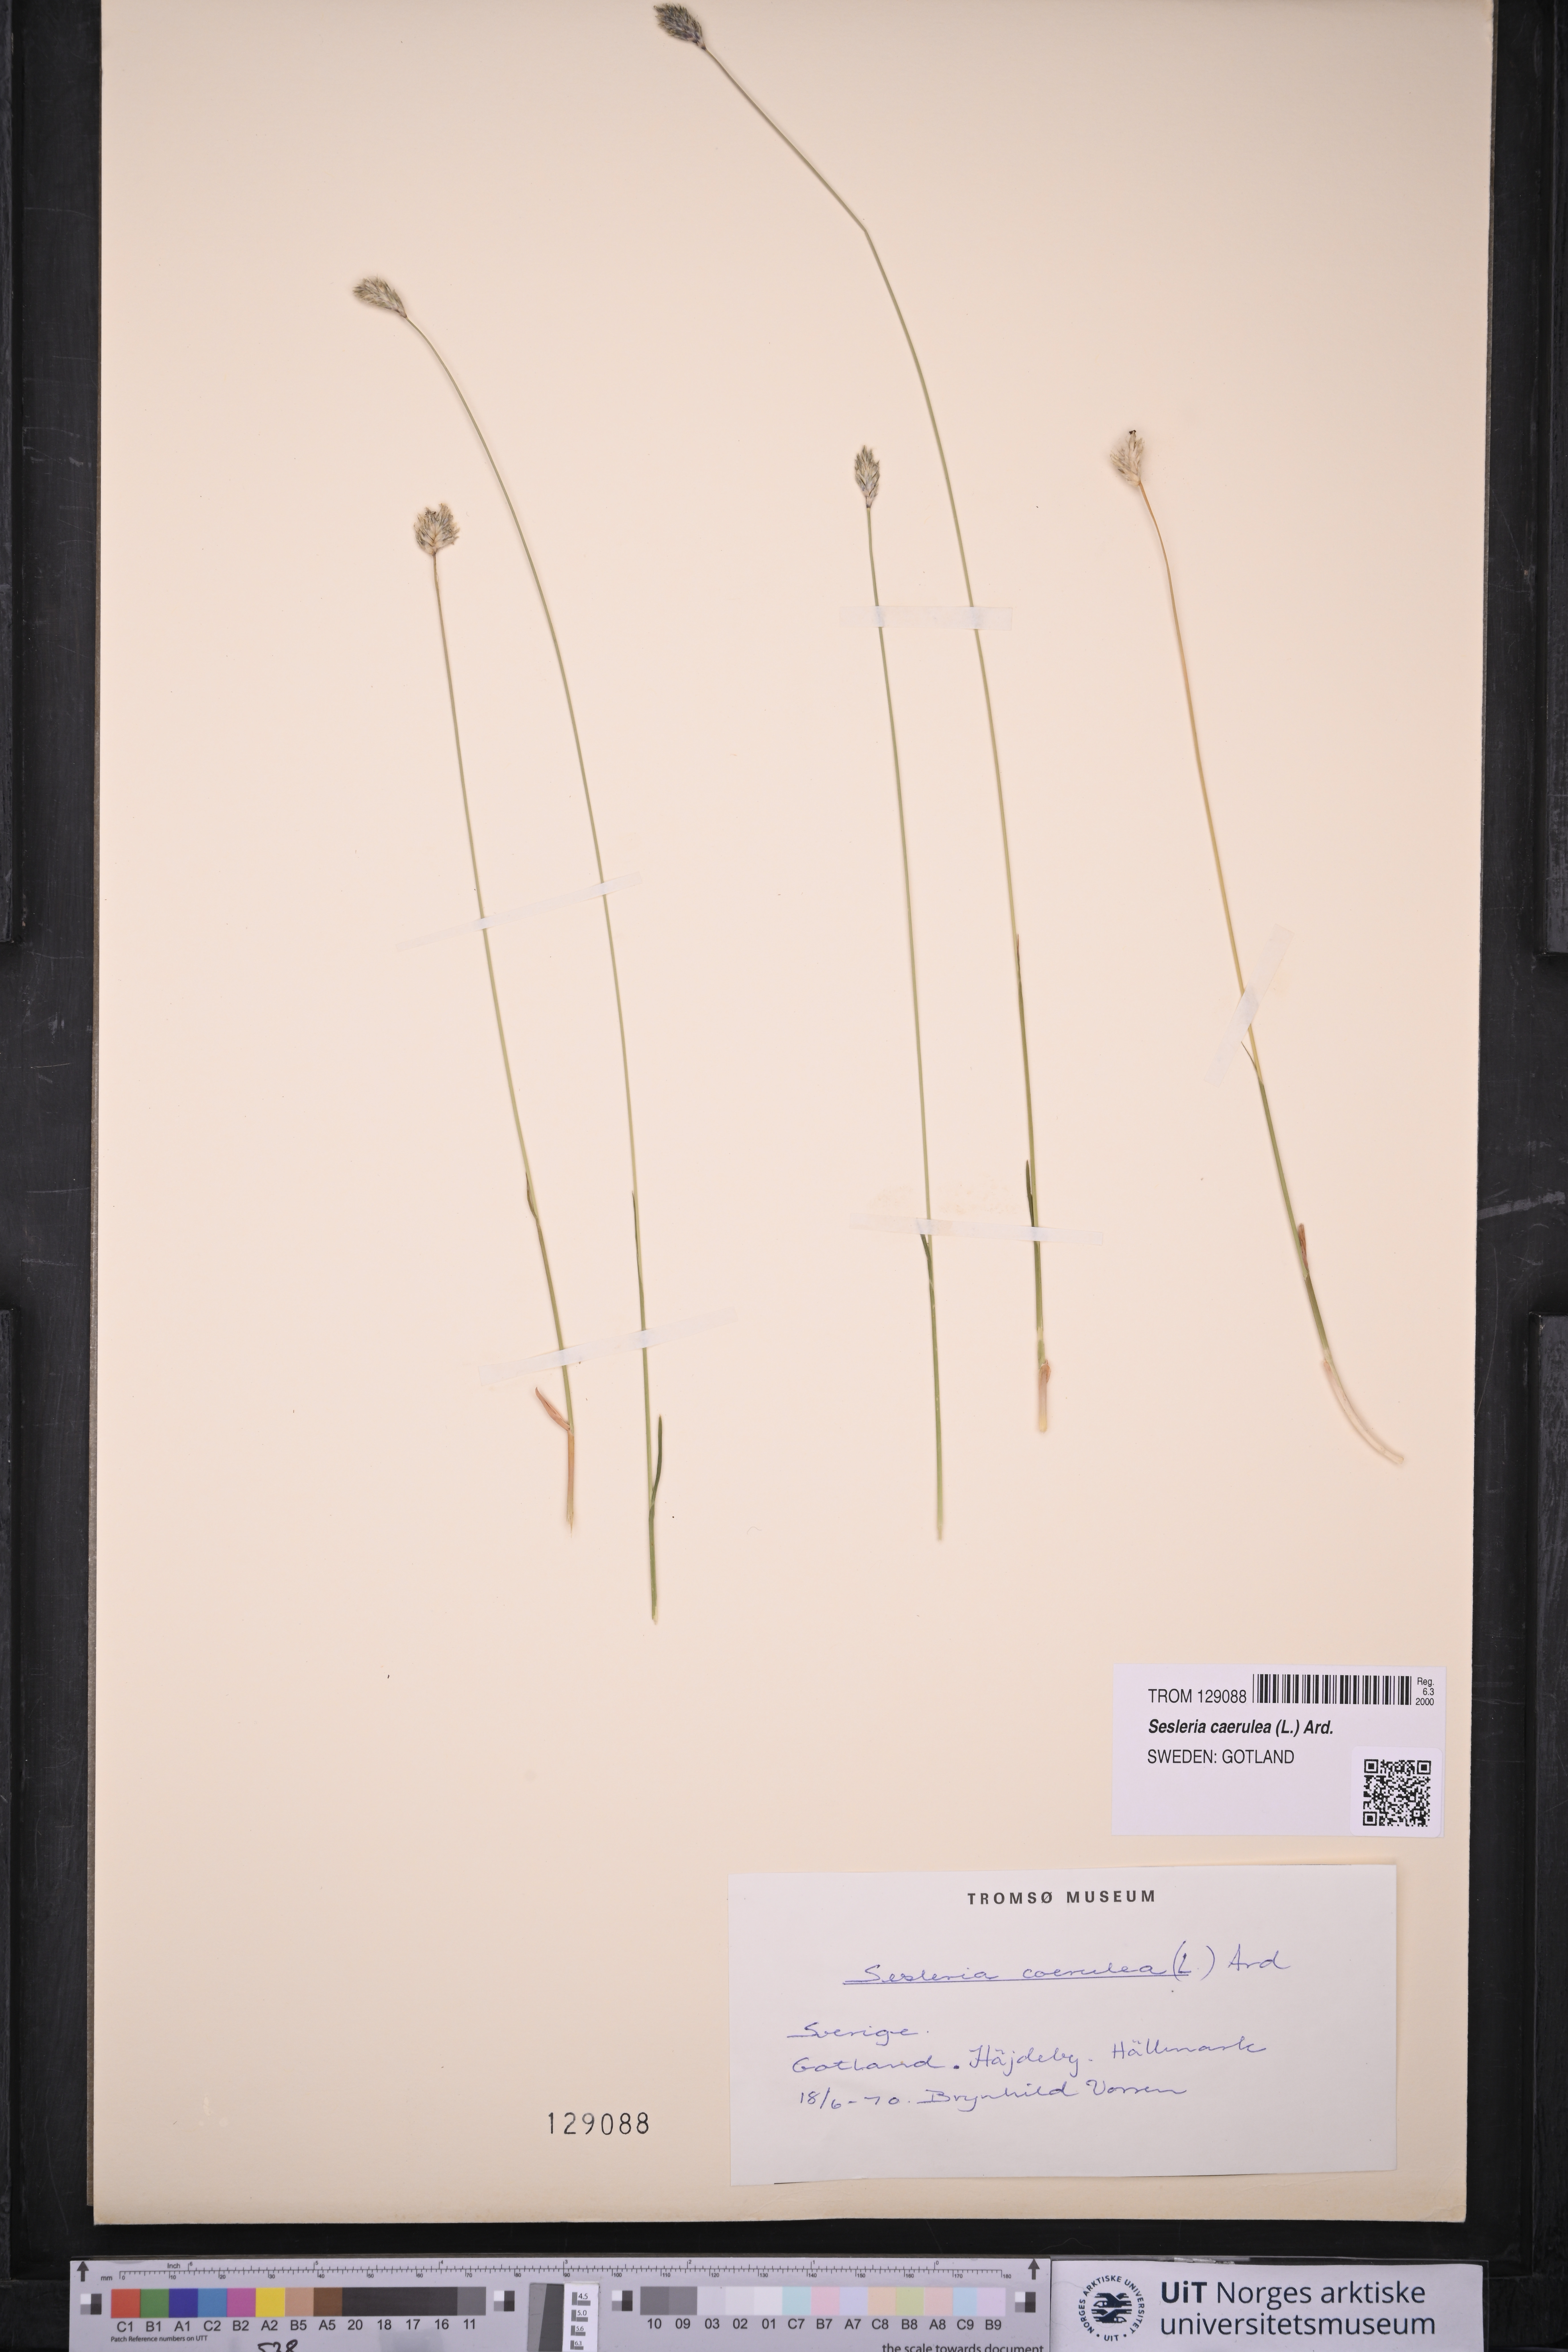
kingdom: Plantae
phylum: Tracheophyta
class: Liliopsida
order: Poales
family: Poaceae
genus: Sesleria
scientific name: Sesleria caerulea
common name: Blue moor-grass
